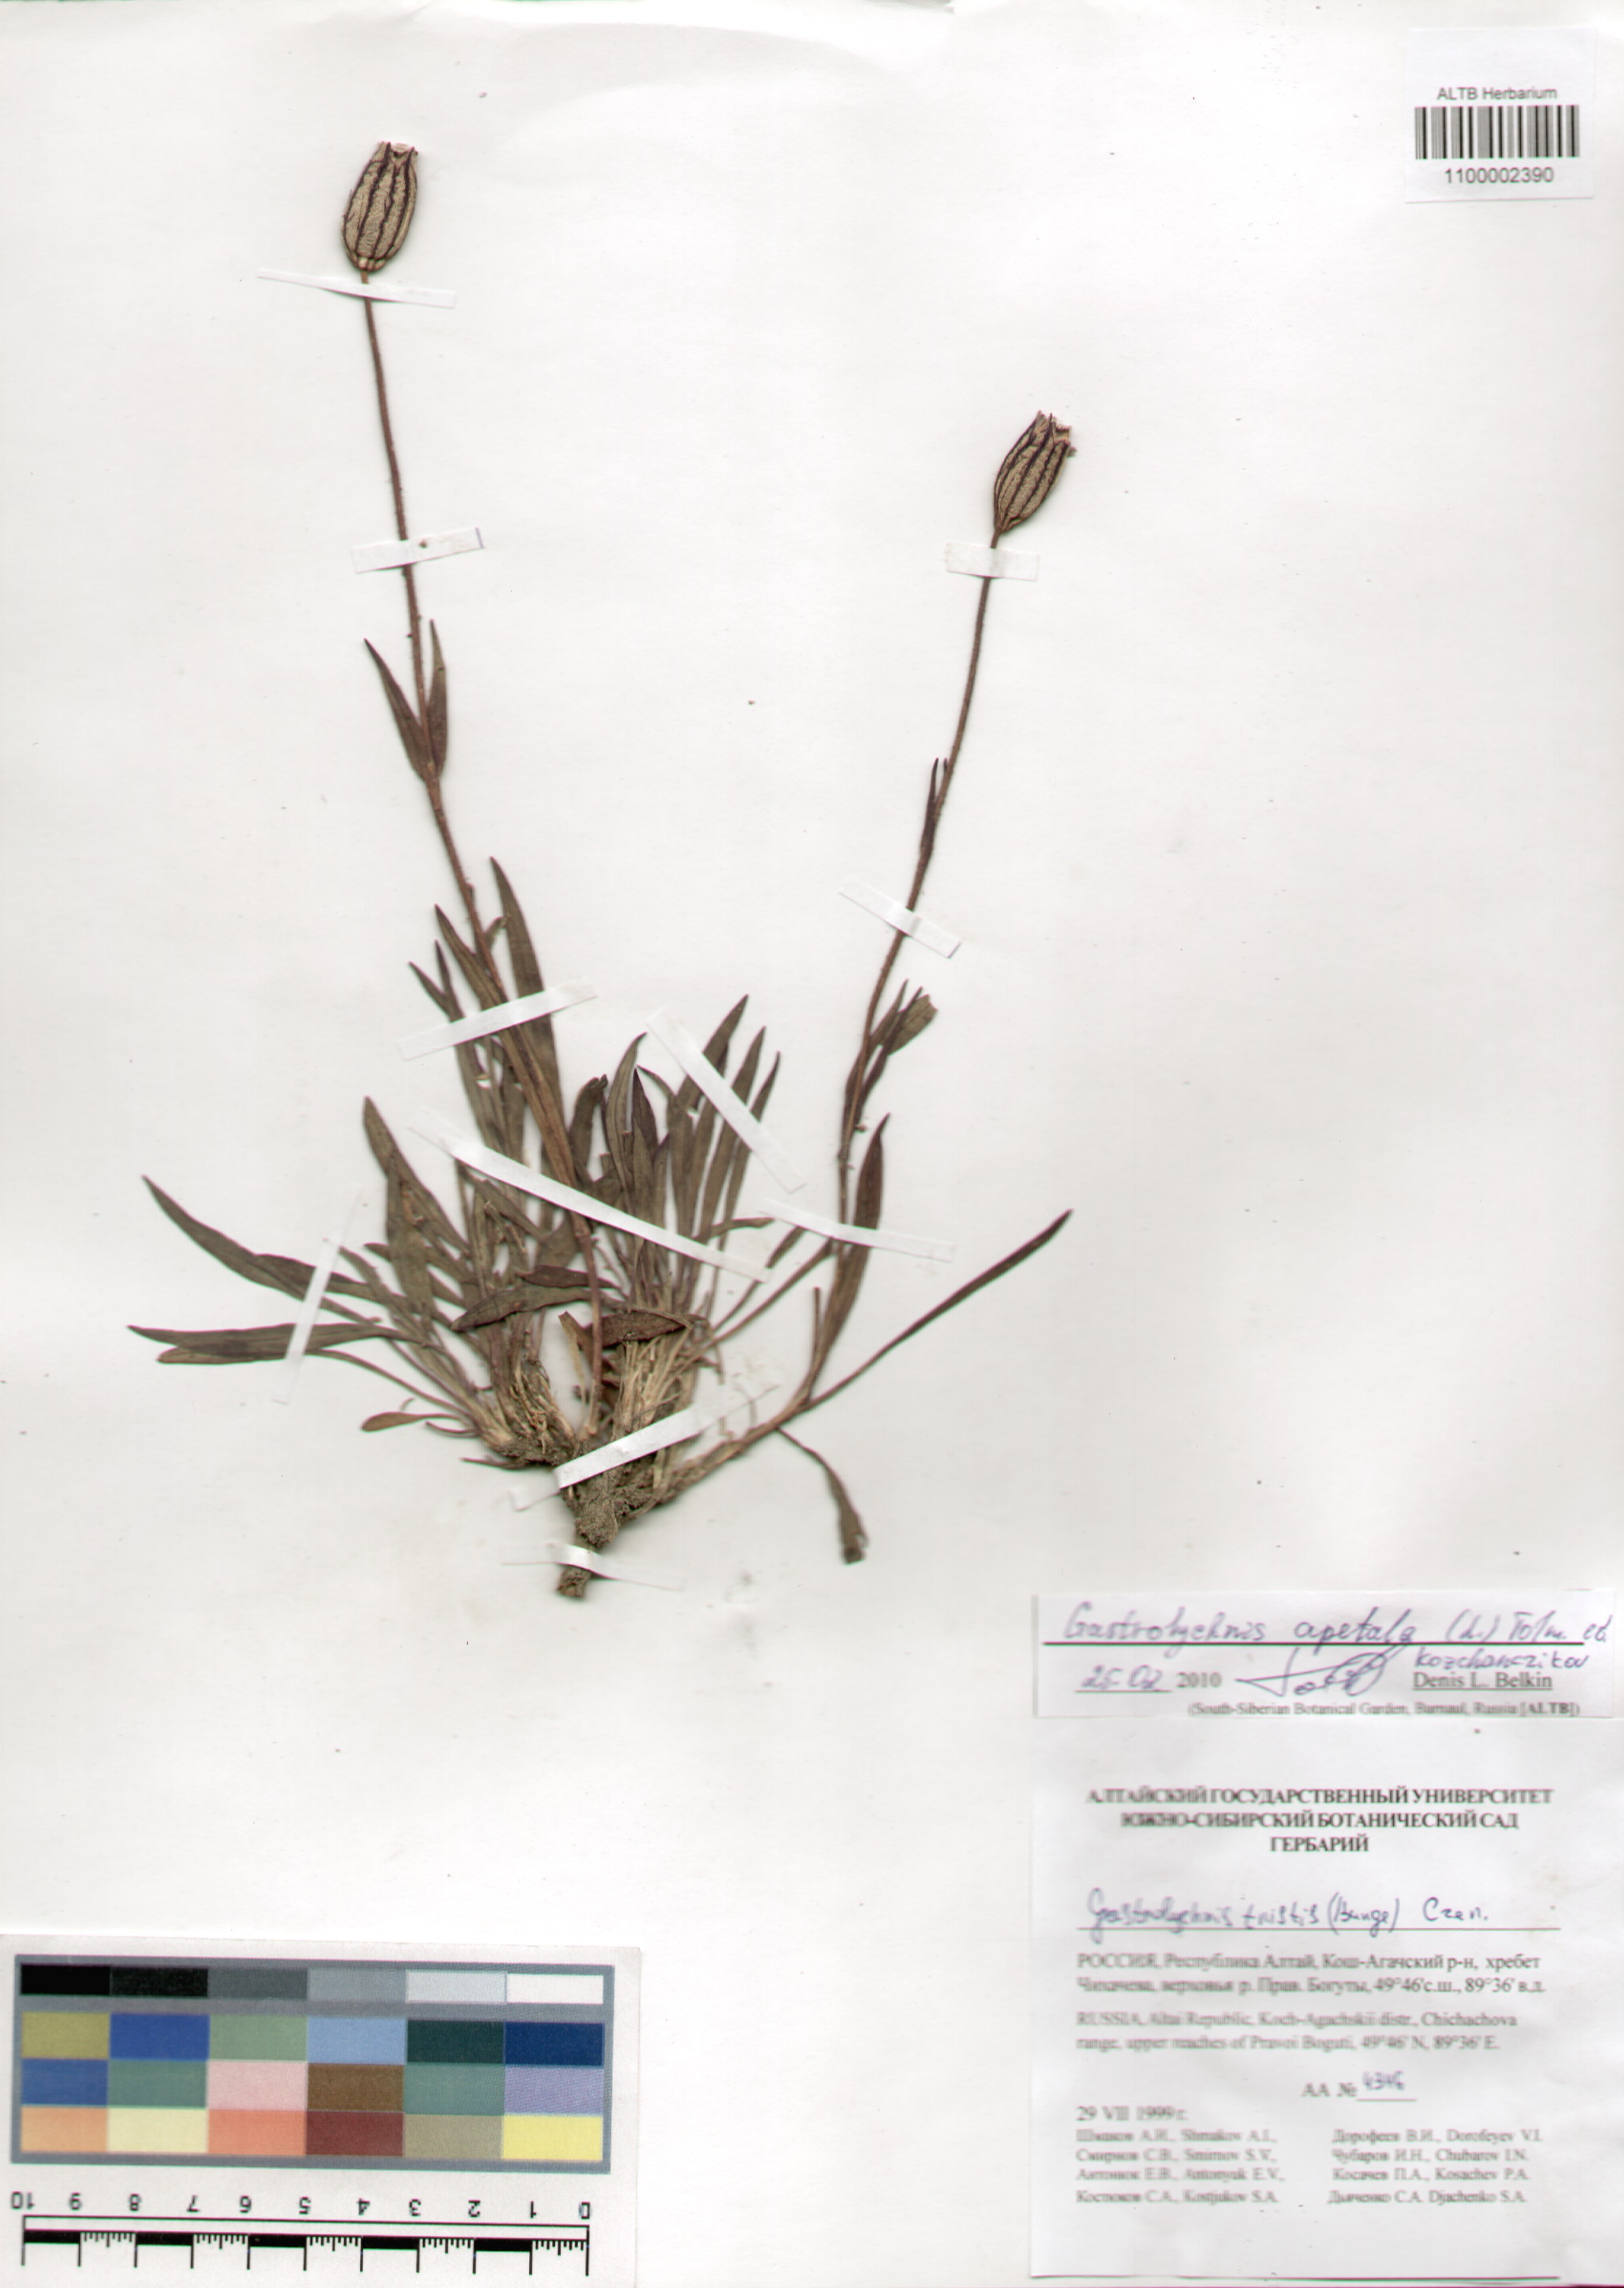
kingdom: Plantae
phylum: Tracheophyta
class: Magnoliopsida
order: Caryophyllales
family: Caryophyllaceae
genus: Silene
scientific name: Silene wahlbergella
